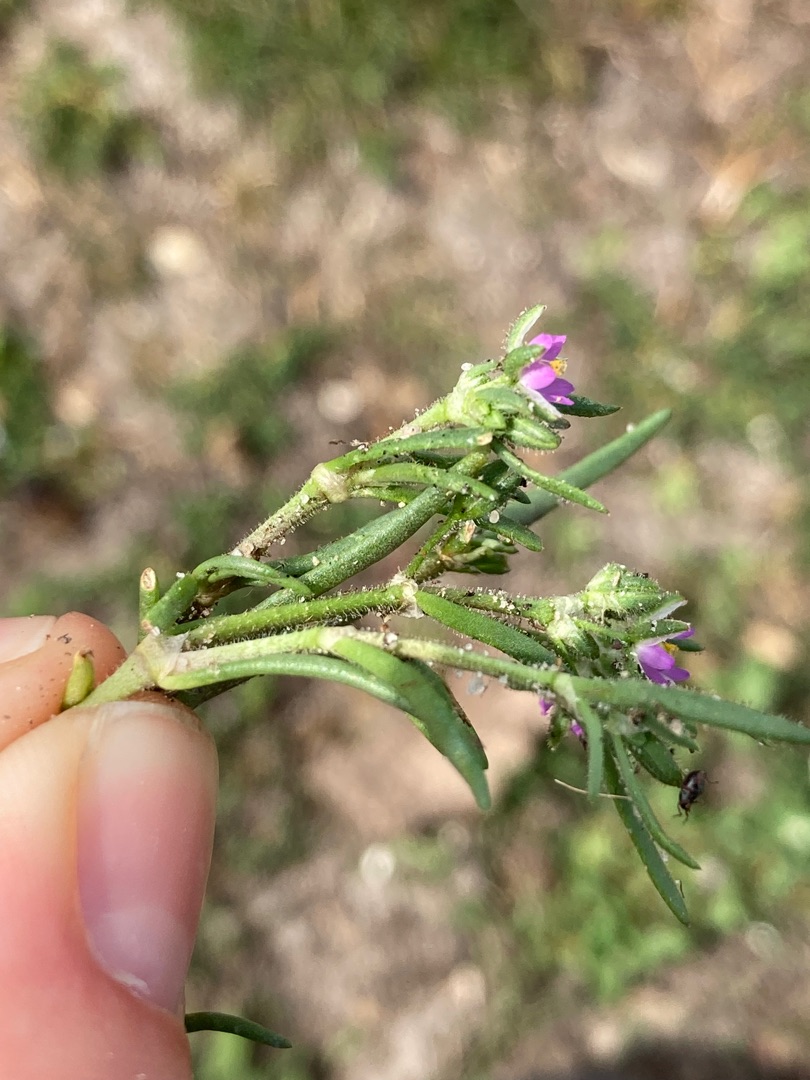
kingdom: Plantae
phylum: Tracheophyta
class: Magnoliopsida
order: Caryophyllales
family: Caryophyllaceae
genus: Spergularia
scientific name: Spergularia media
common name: Vingefrøet hindeknæ
